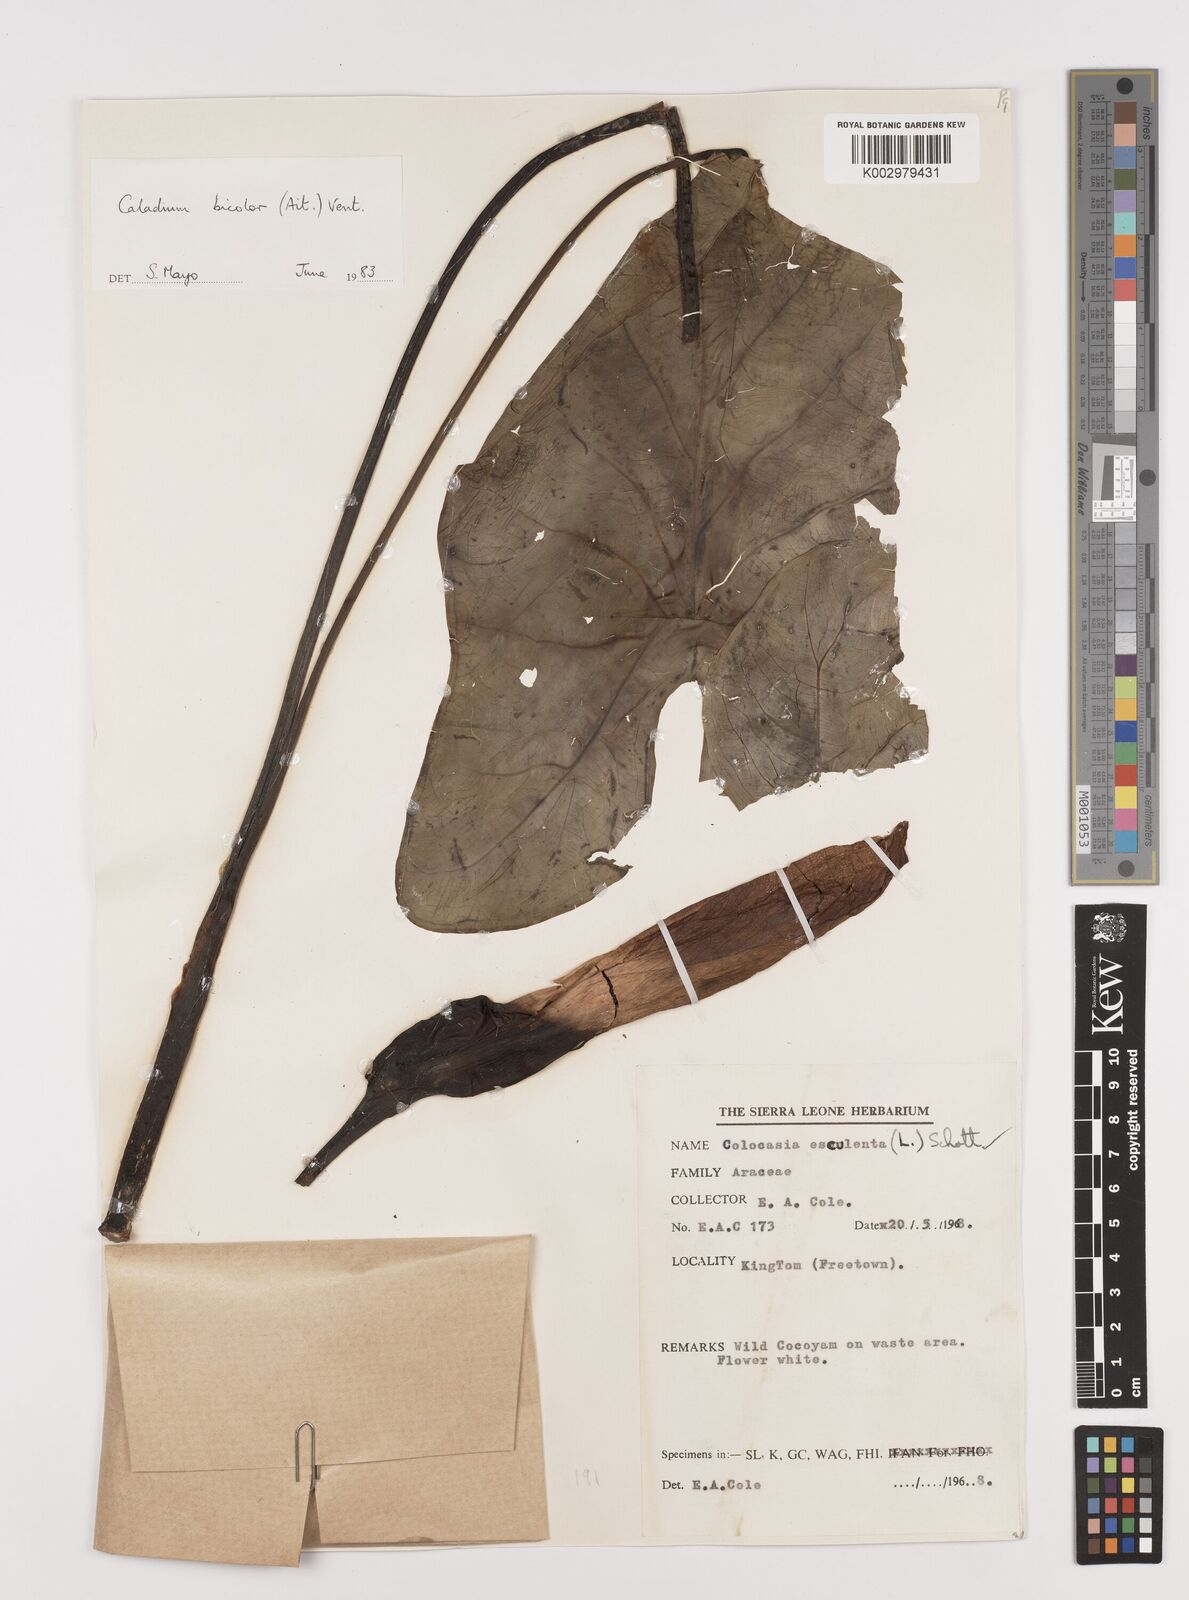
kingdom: Plantae
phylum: Tracheophyta
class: Liliopsida
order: Alismatales
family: Araceae
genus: Caladium
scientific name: Caladium bicolor
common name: Artist's pallet
